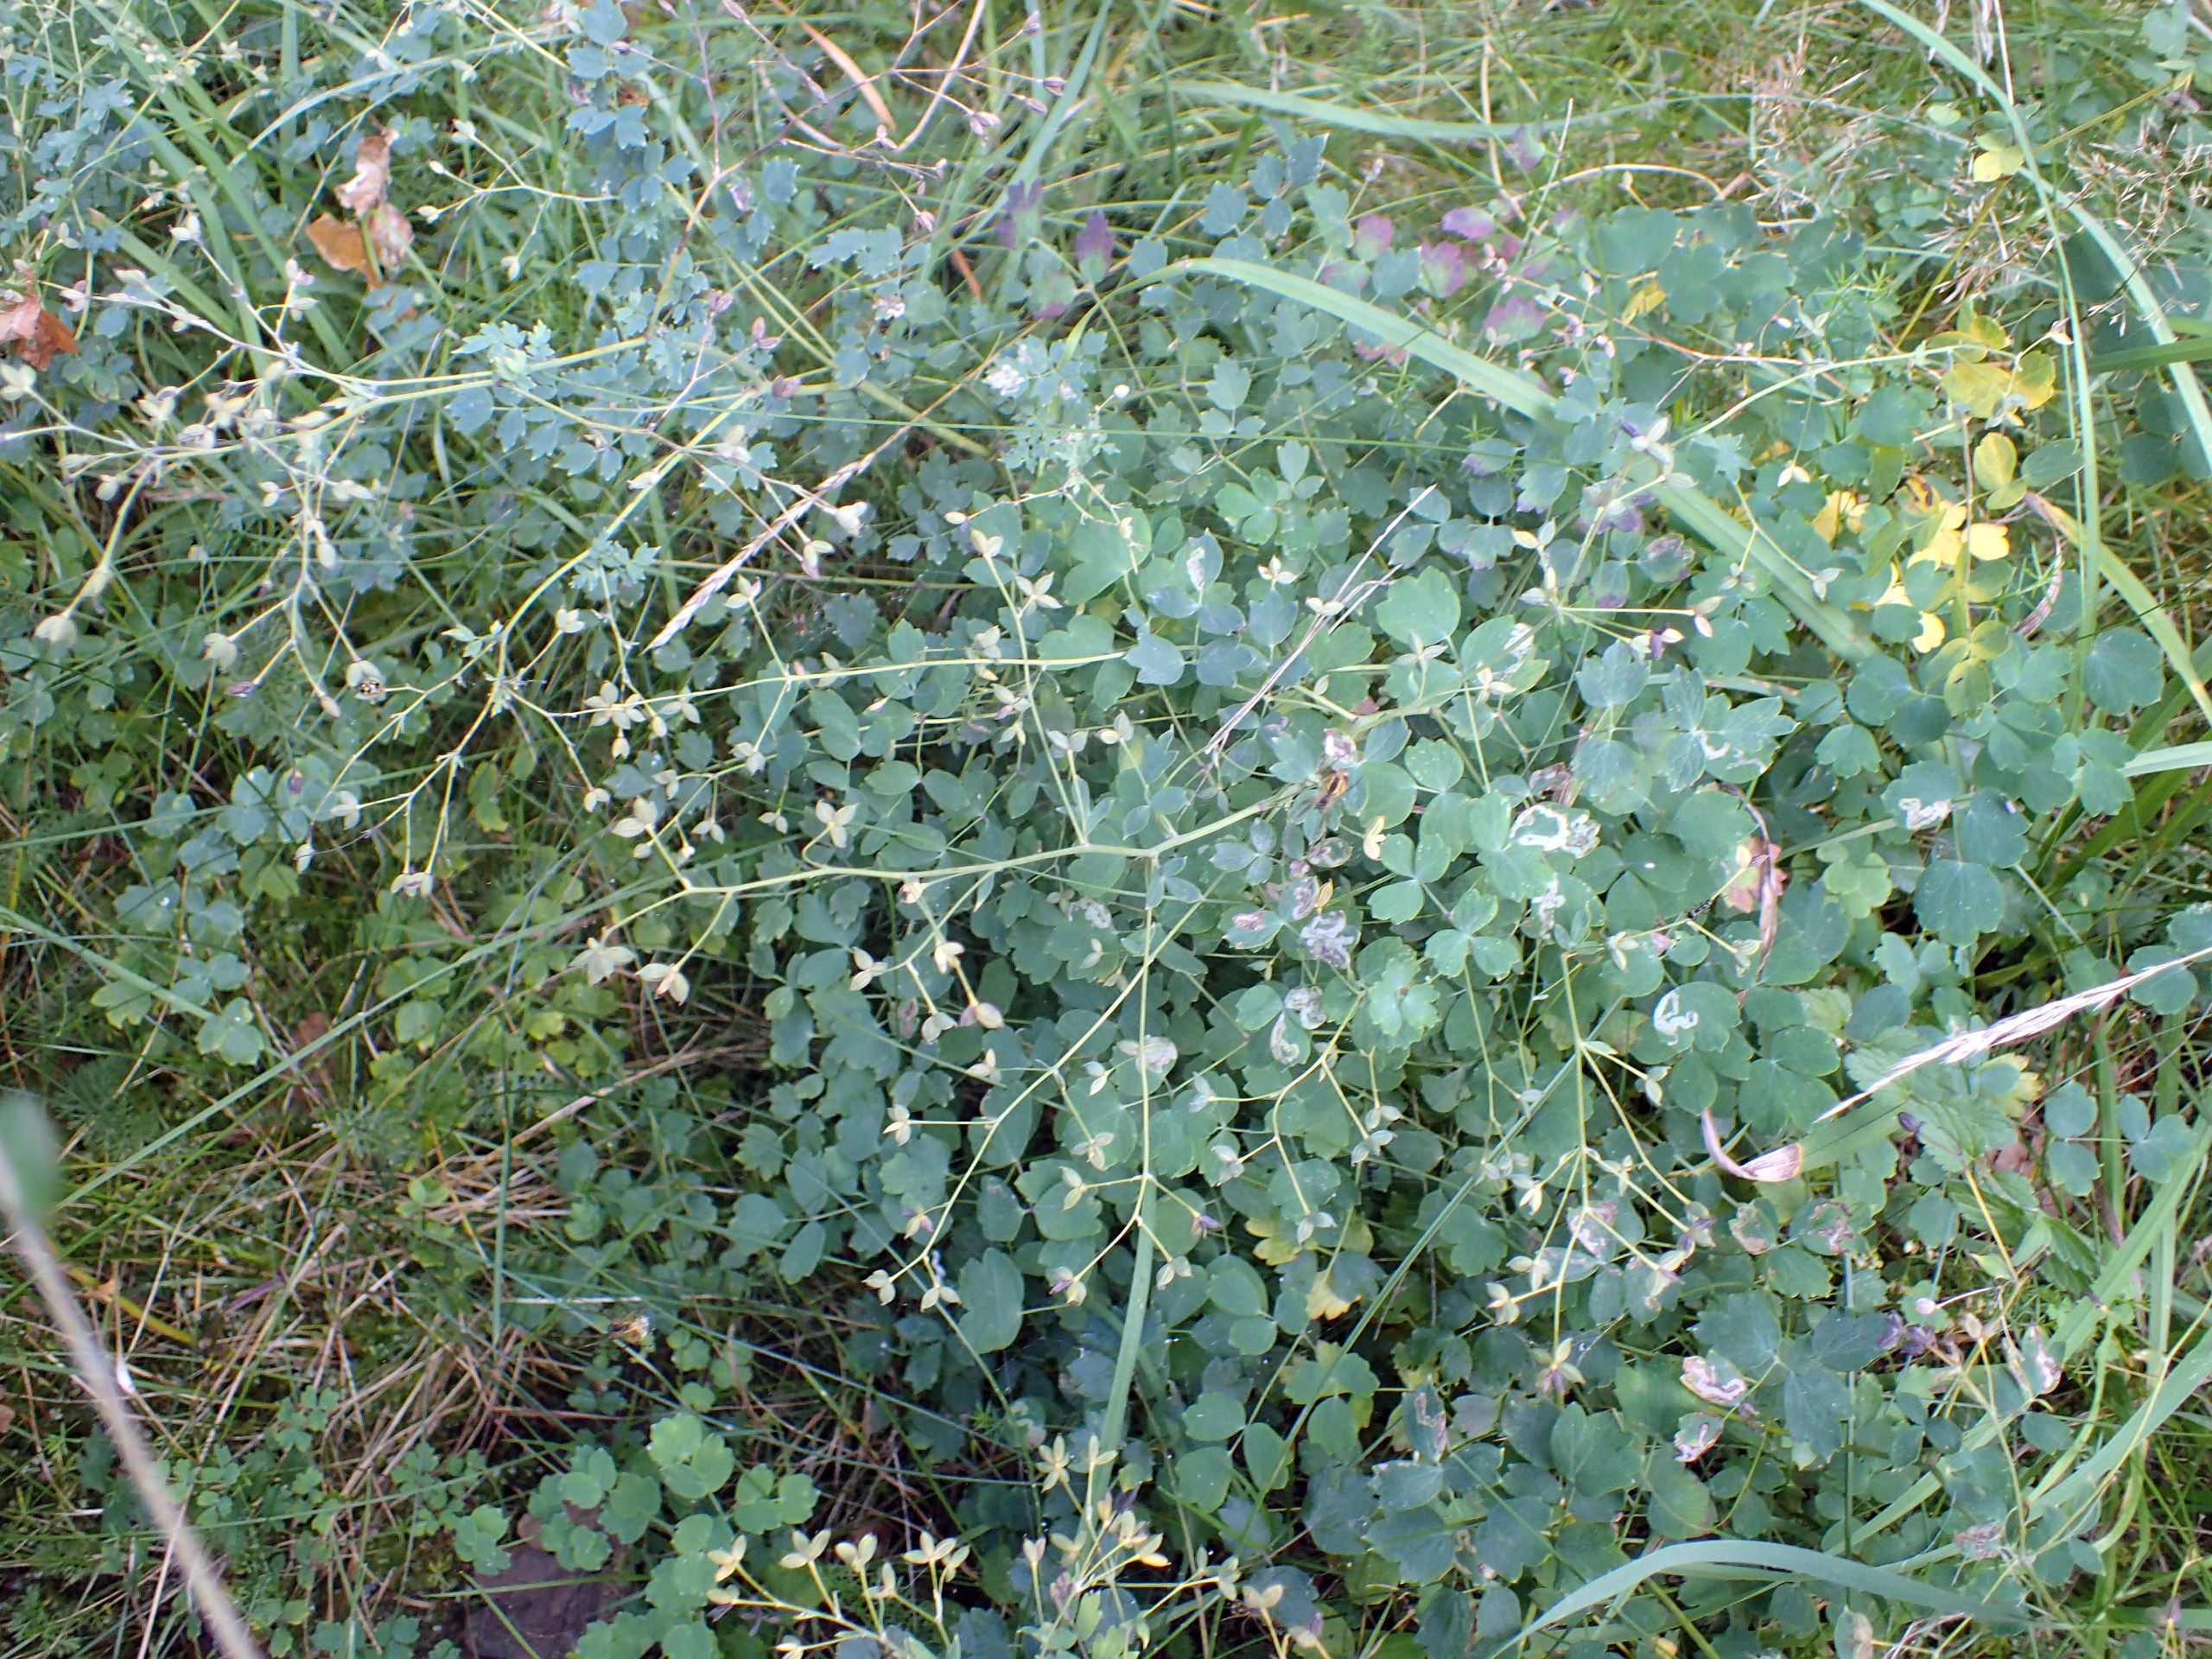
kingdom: Plantae
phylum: Tracheophyta
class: Magnoliopsida
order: Ranunculales
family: Ranunculaceae
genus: Thalictrum
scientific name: Thalictrum minus
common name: Sand-frøstjerne
